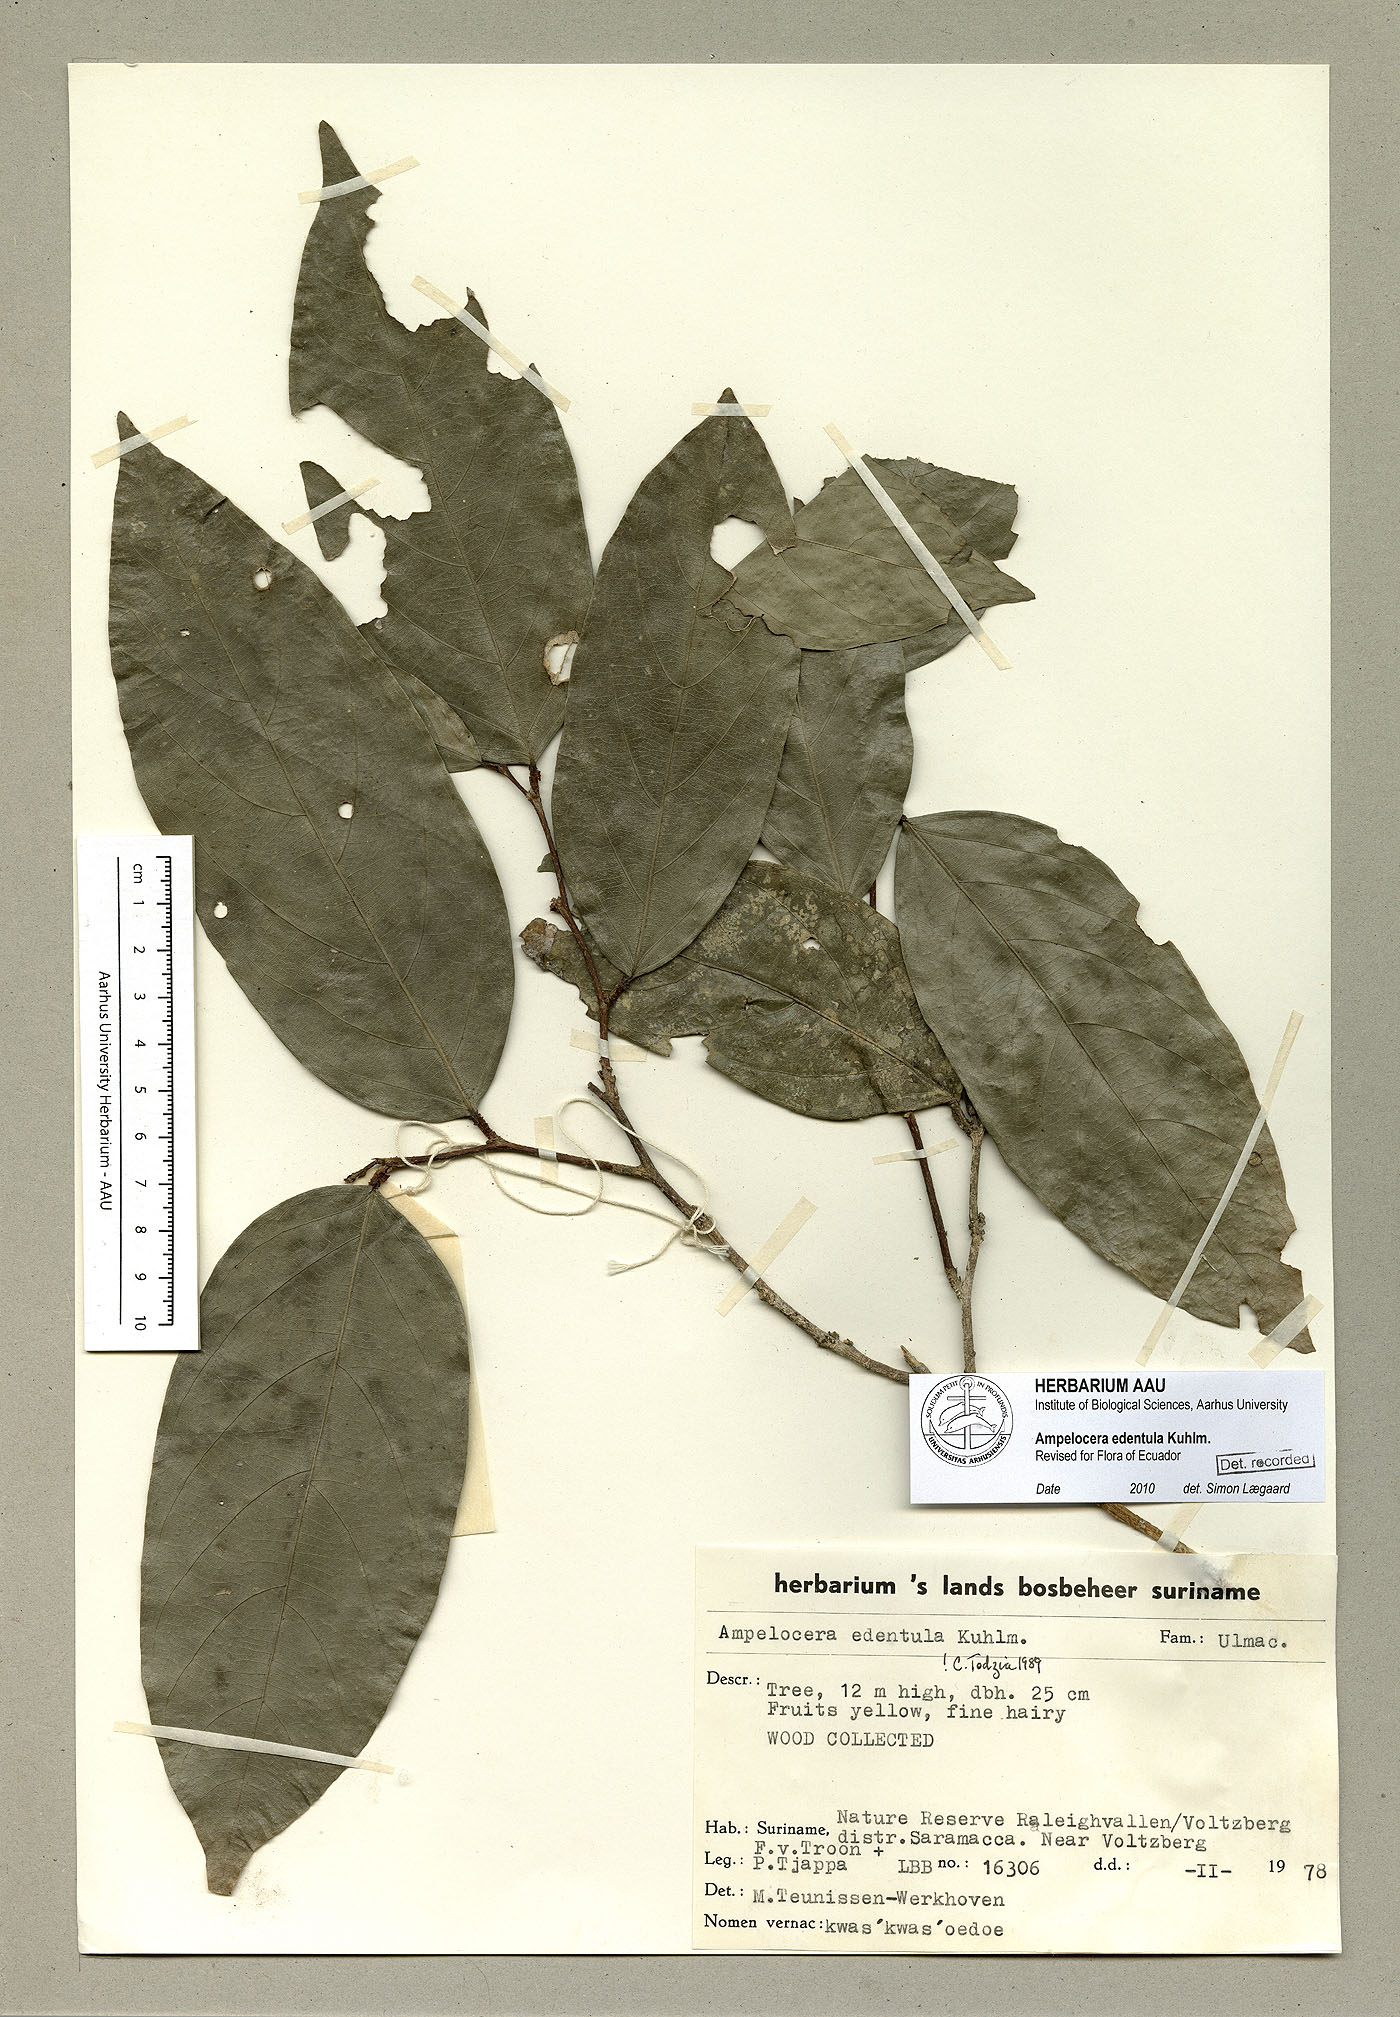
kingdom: Plantae
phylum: Tracheophyta
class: Magnoliopsida
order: Rosales
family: Cannabaceae
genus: Ampelocera
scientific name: Ampelocera edentula
